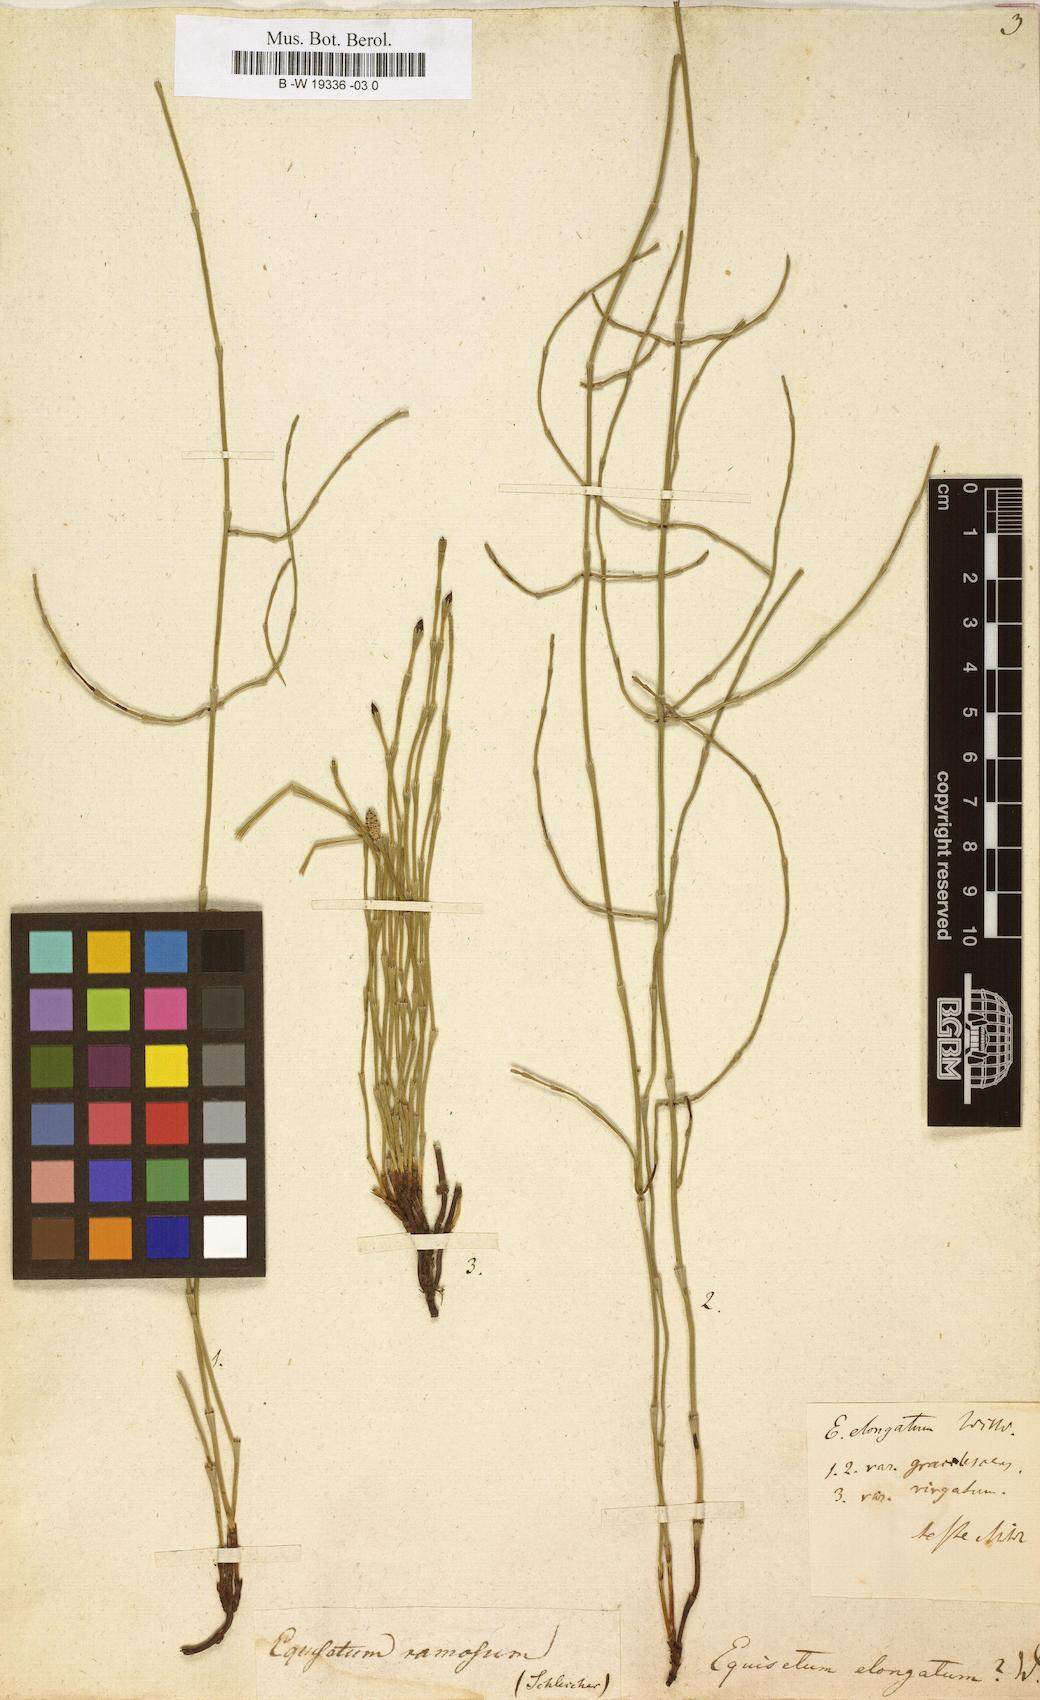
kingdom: Plantae
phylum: Tracheophyta
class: Polypodiopsida
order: Equisetales
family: Equisetaceae
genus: Equisetum
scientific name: Equisetum ramosissimum
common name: Branched horsetail
